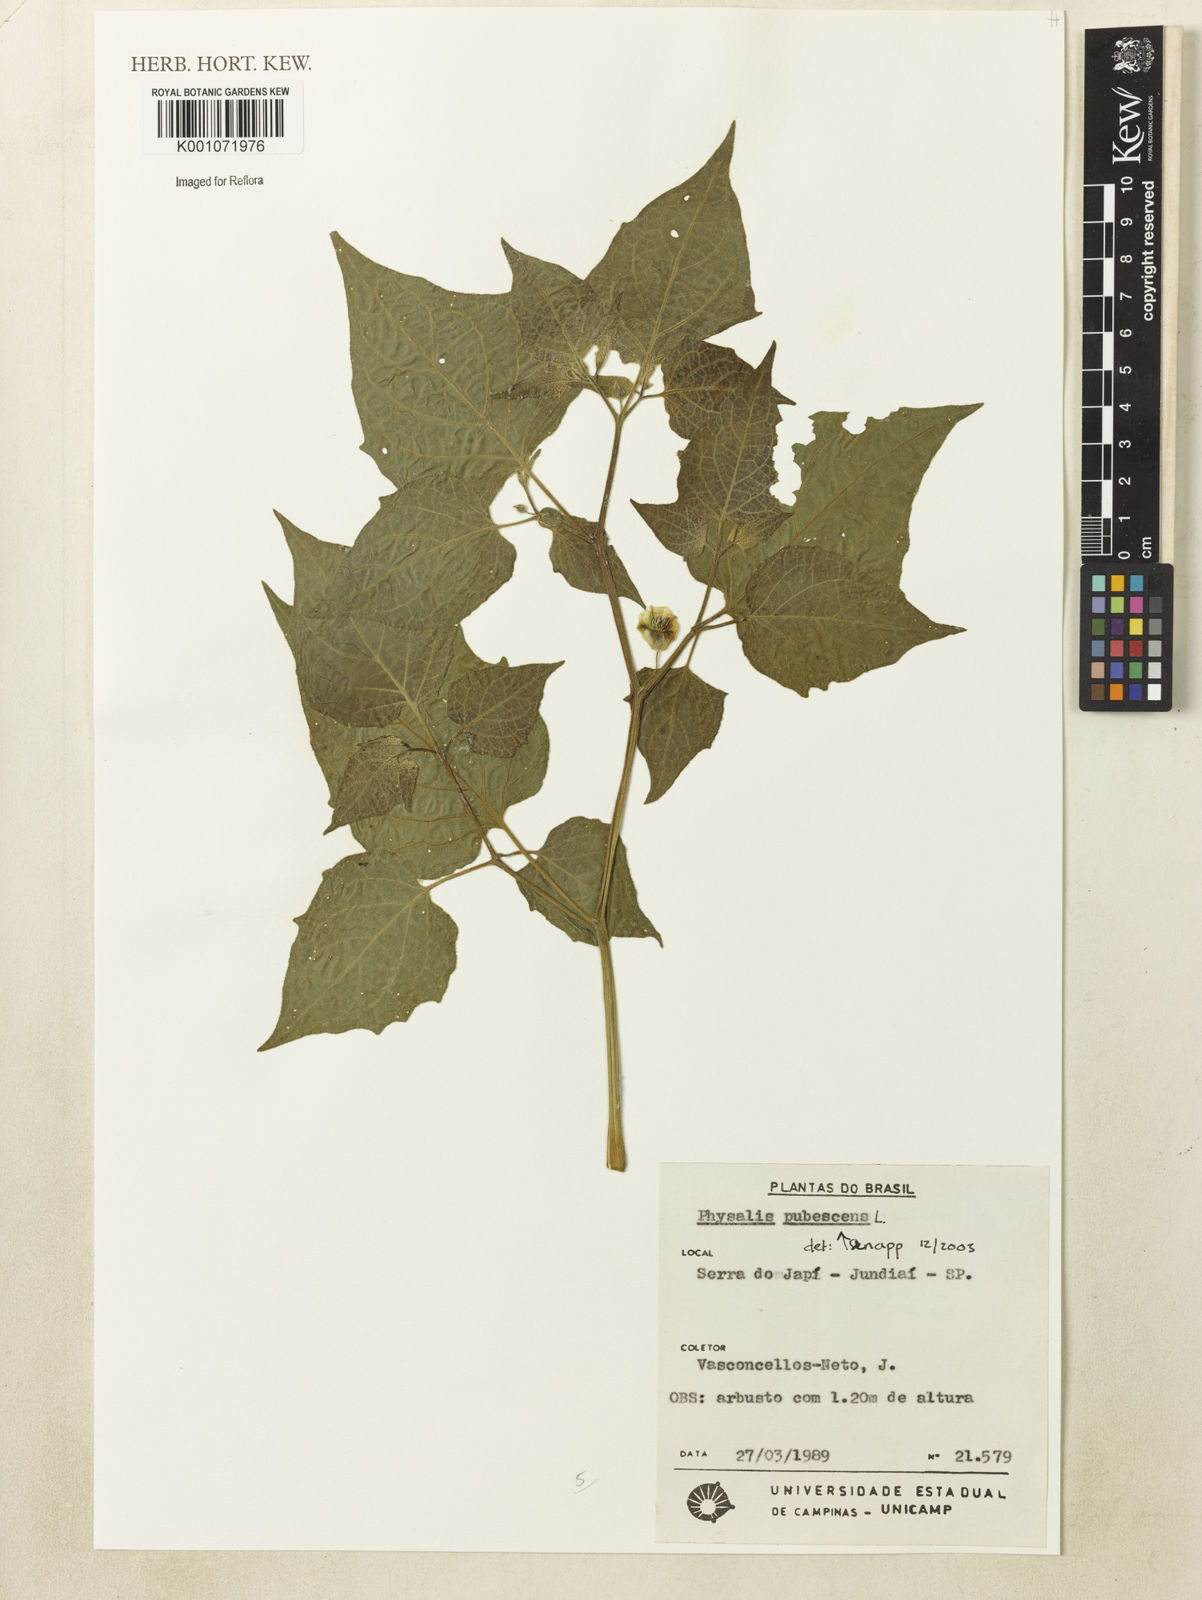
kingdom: Plantae
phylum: Tracheophyta
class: Magnoliopsida
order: Solanales
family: Solanaceae
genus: Physalis
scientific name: Physalis pubescens
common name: Downy ground-cherry
